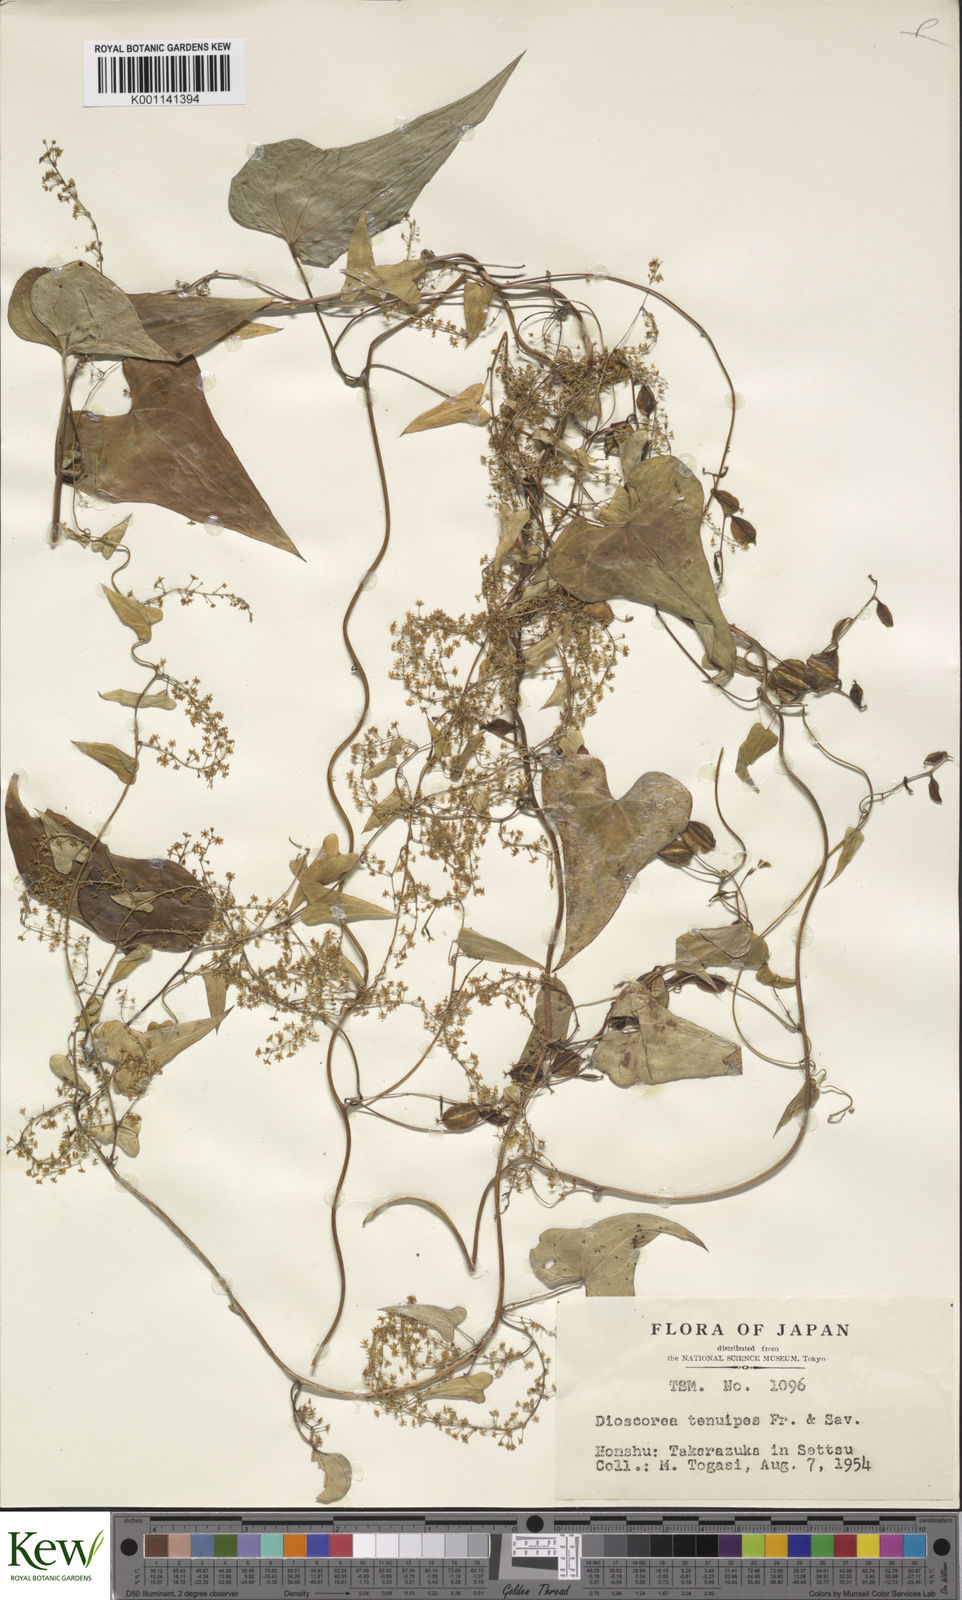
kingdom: Plantae
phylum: Tracheophyta
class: Liliopsida
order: Dioscoreales
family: Dioscoreaceae
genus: Dioscorea
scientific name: Dioscorea tenuipes
